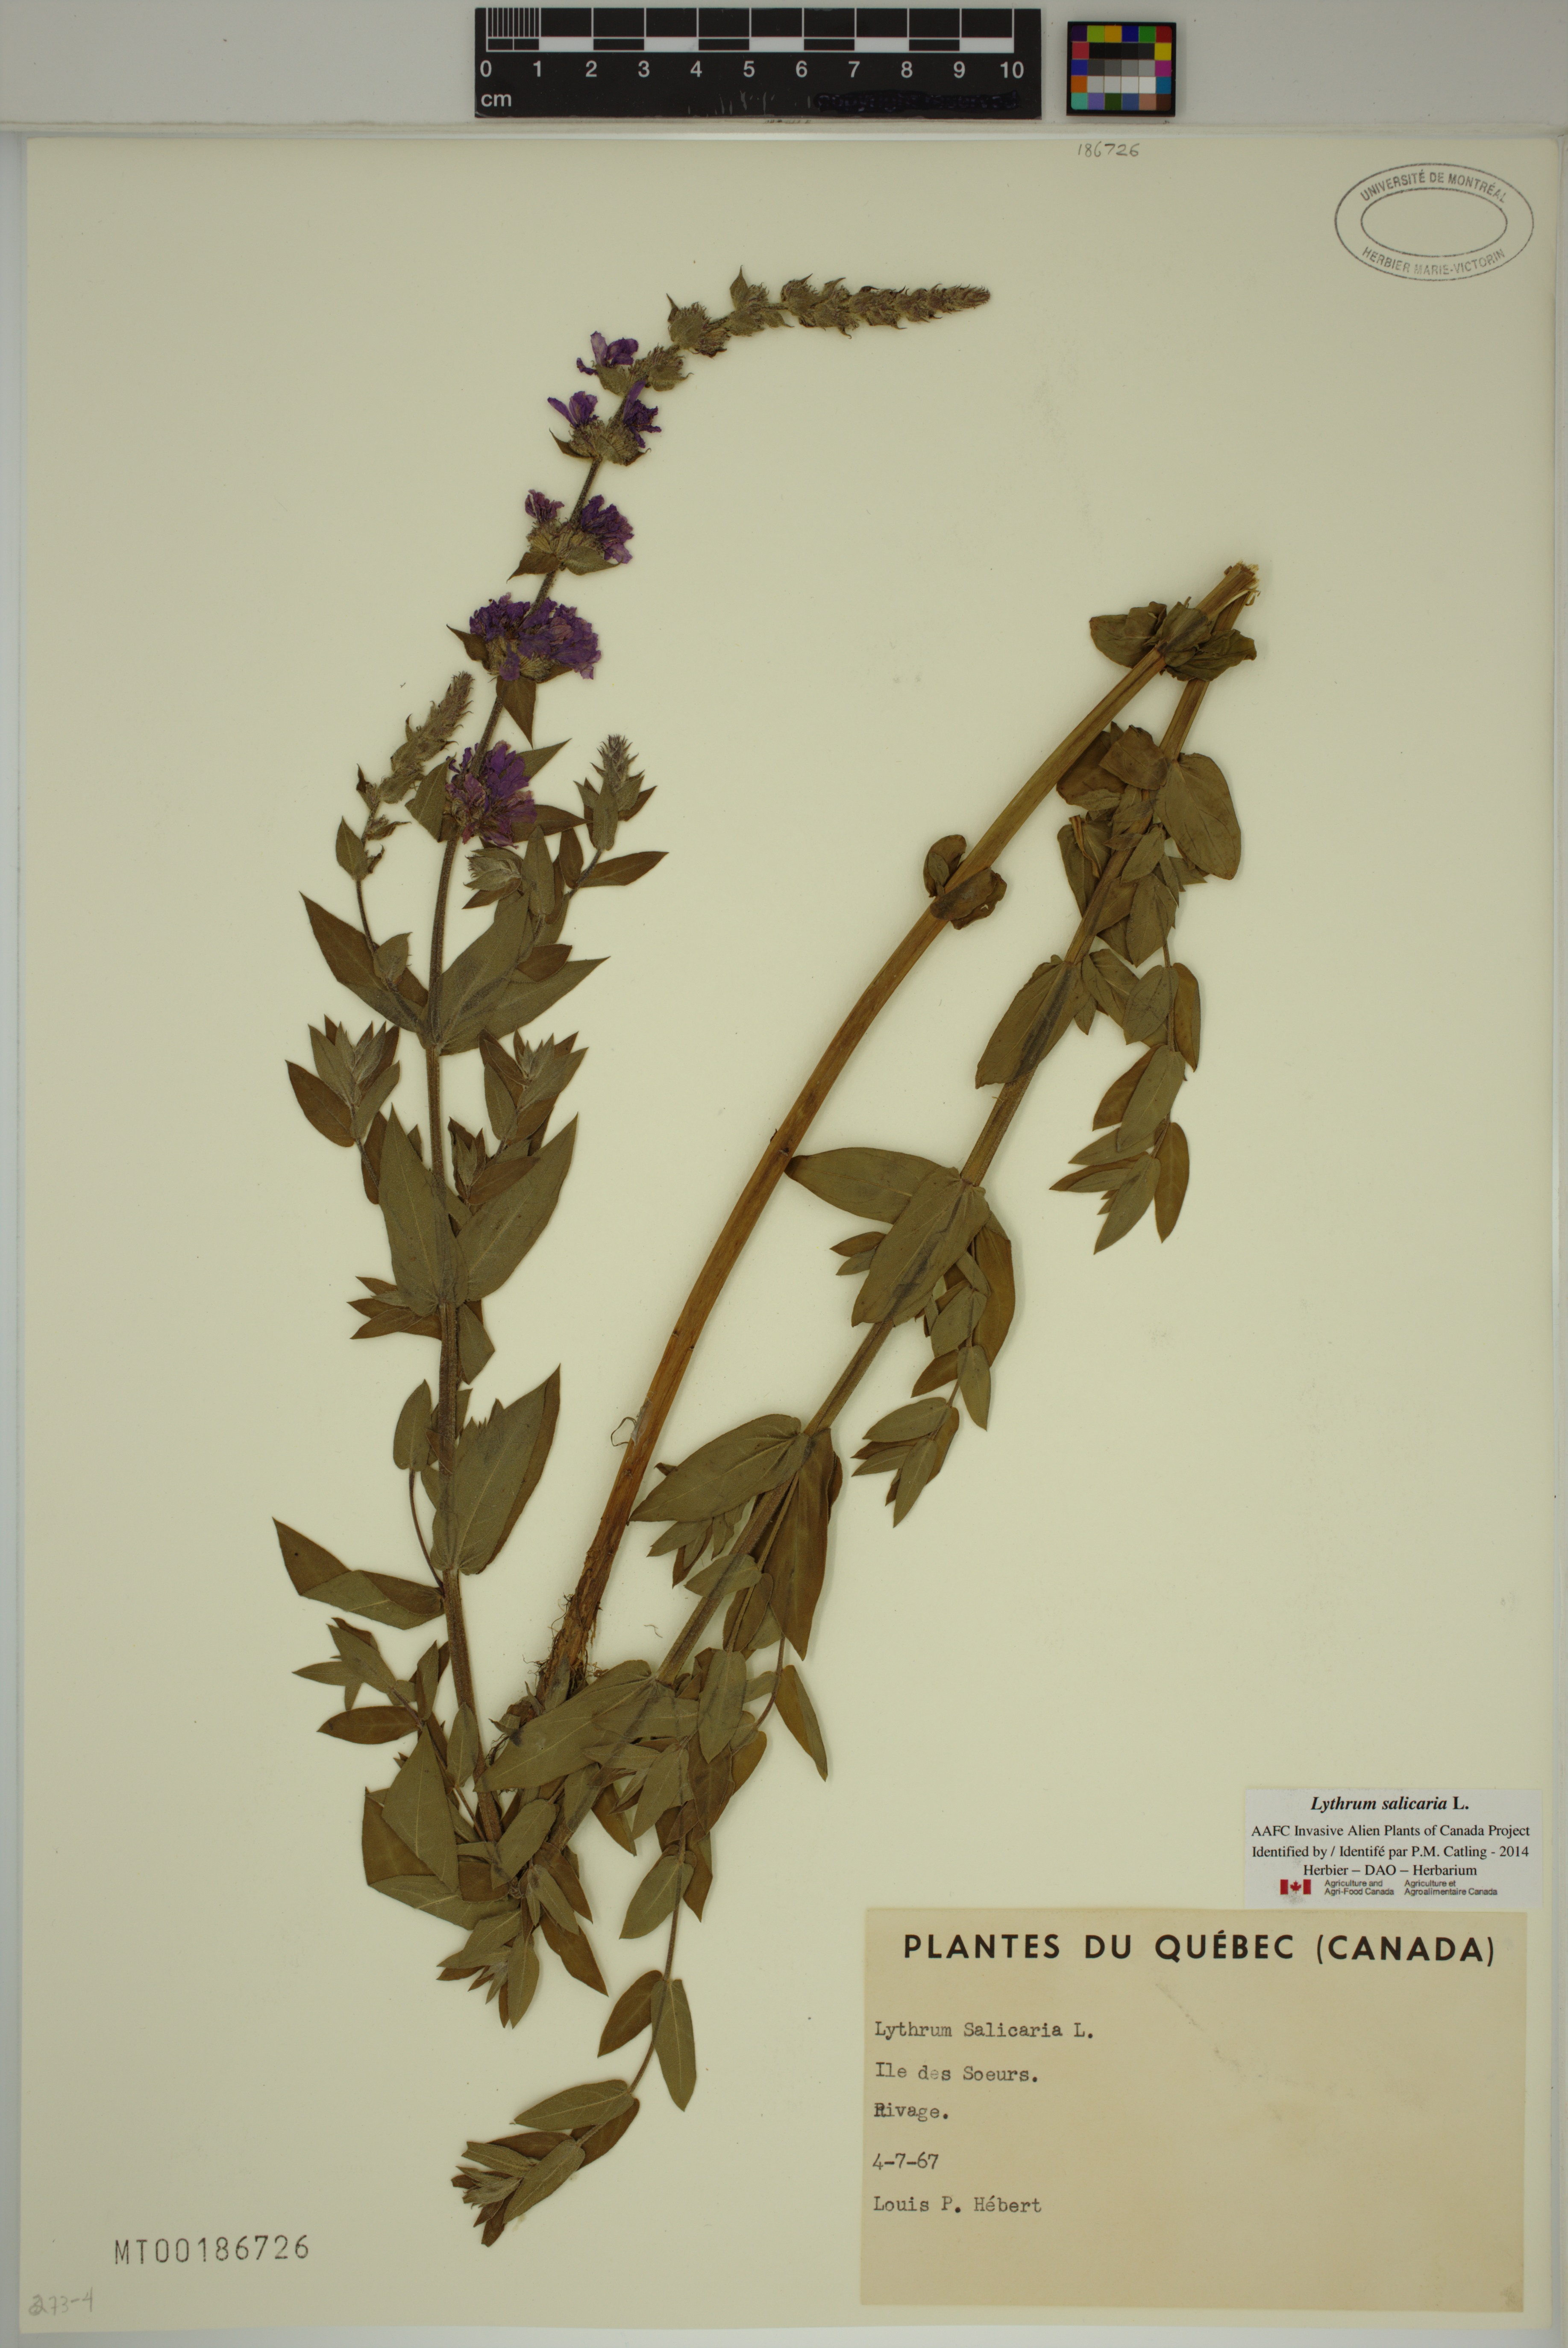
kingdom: Plantae
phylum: Tracheophyta
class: Magnoliopsida
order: Myrtales
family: Lythraceae
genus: Lythrum
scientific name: Lythrum salicaria
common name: Purple loosestrife
